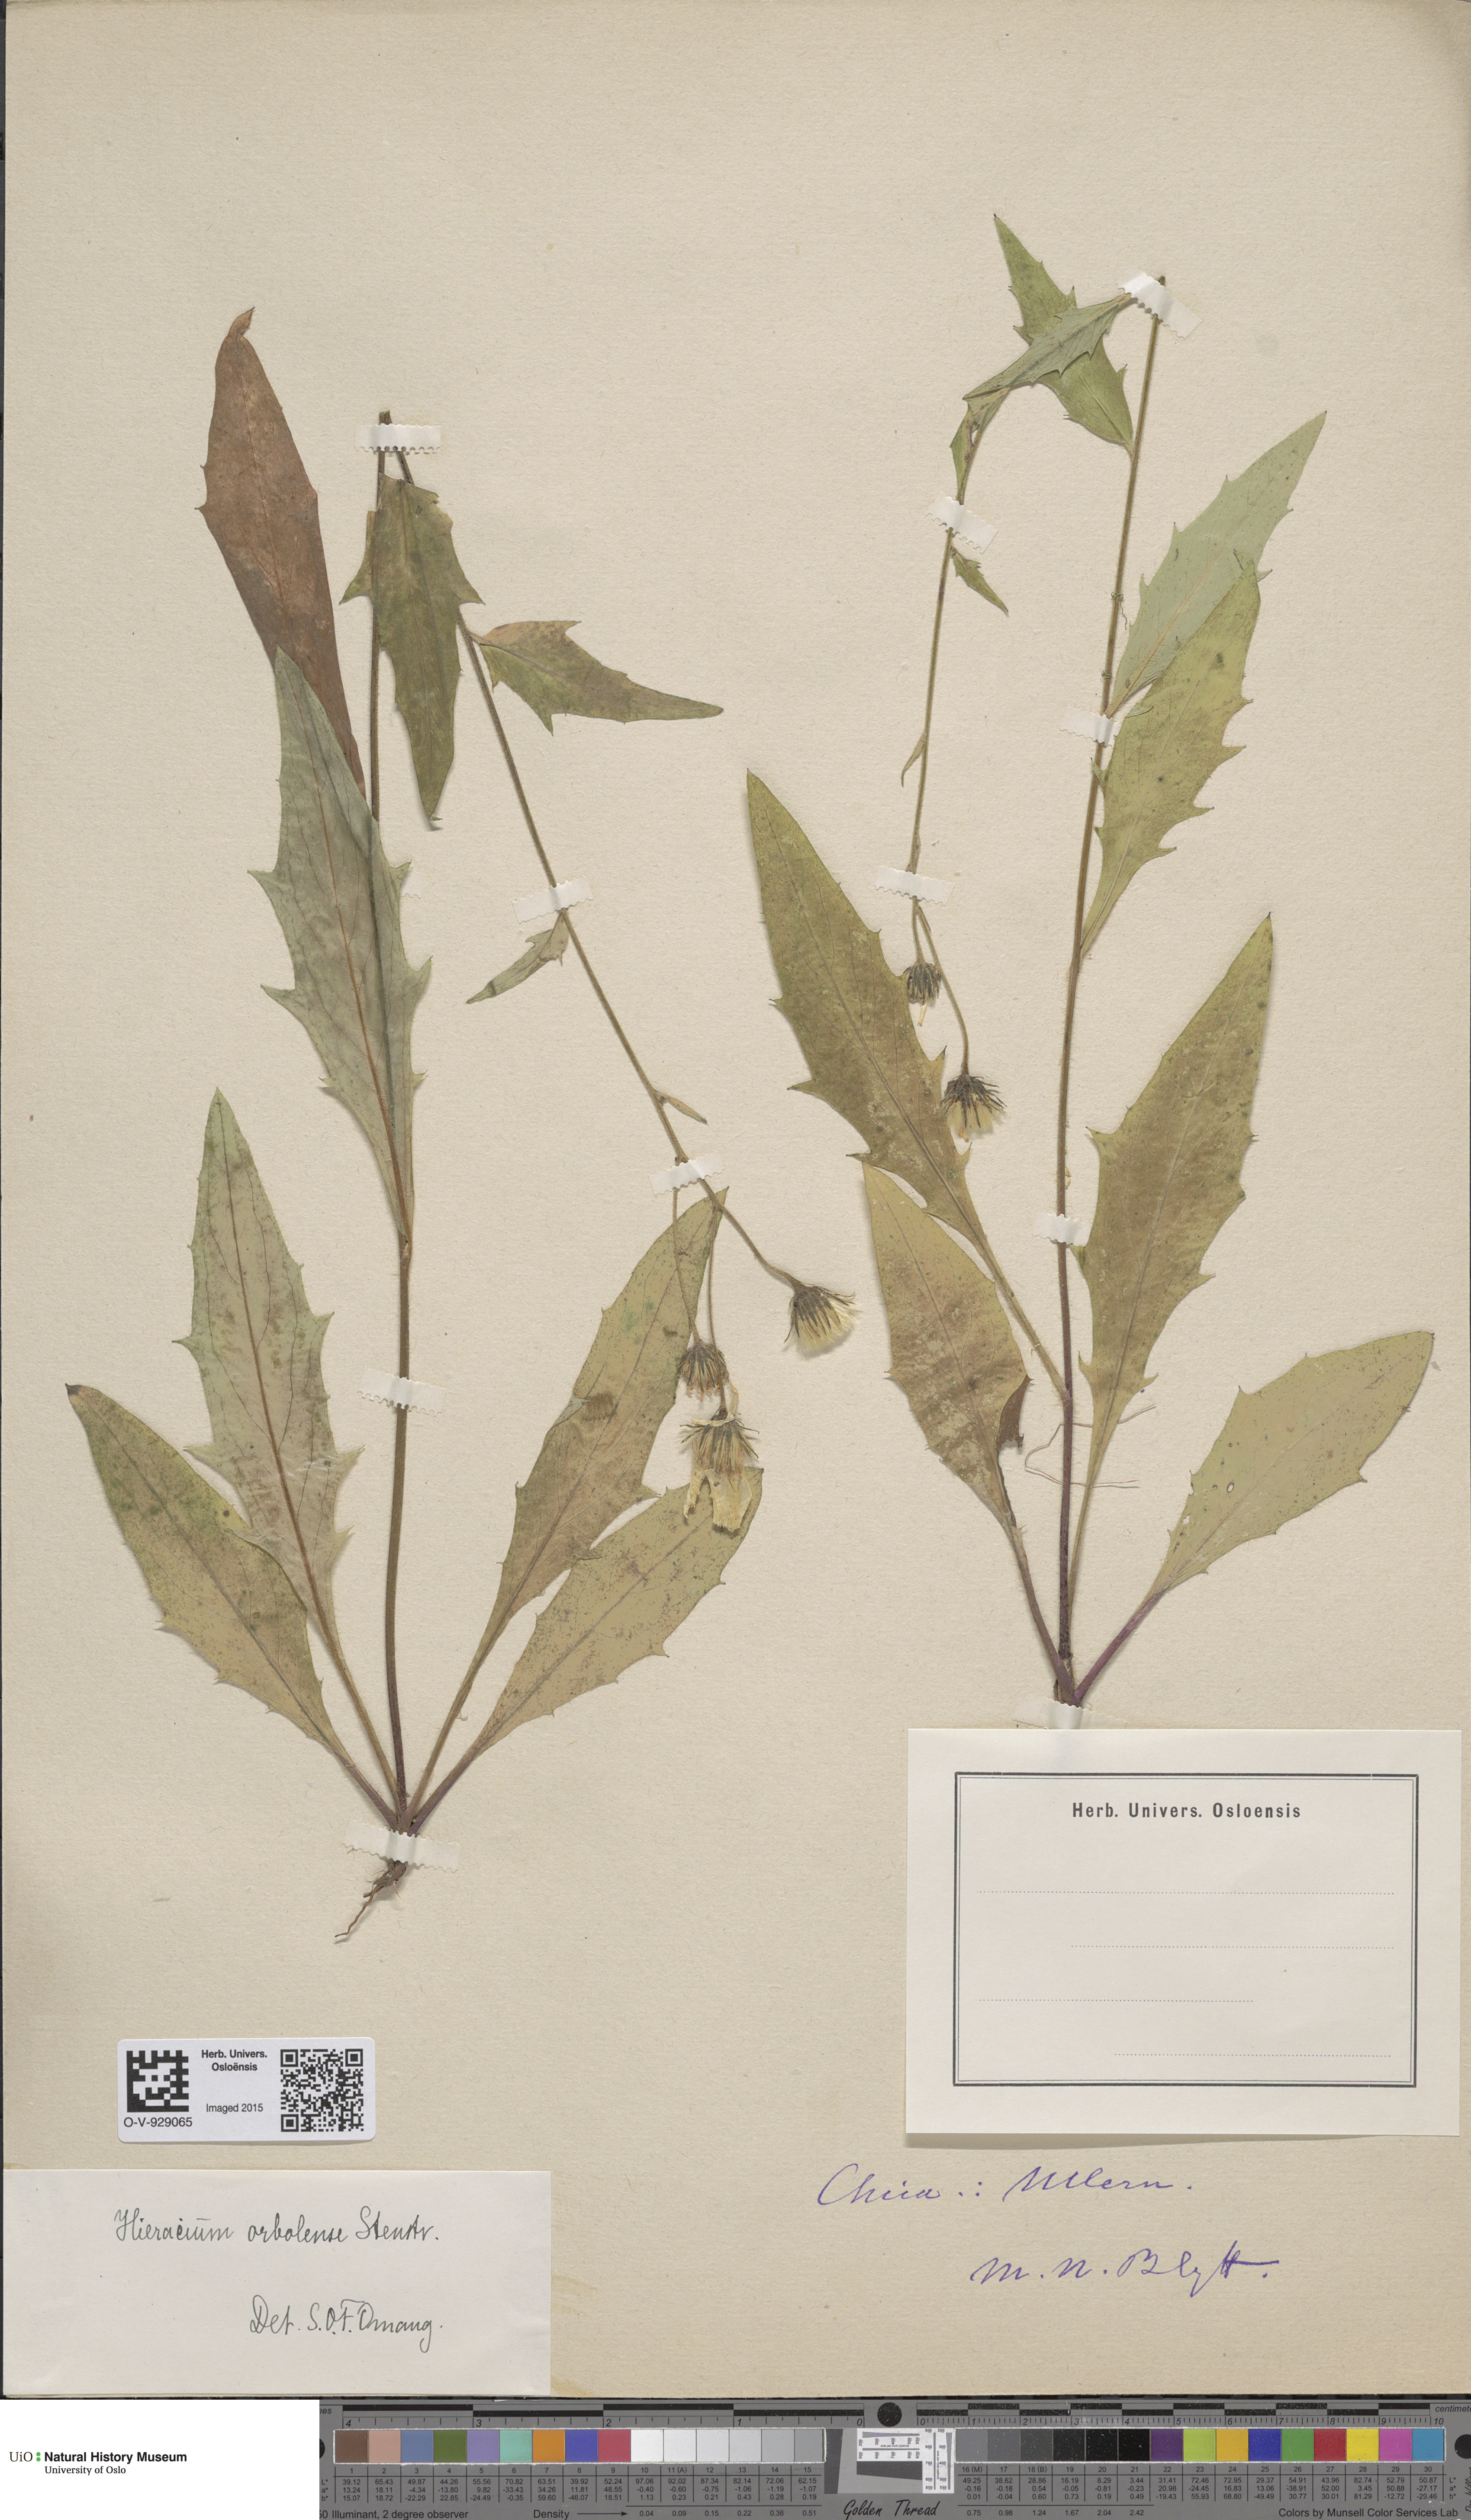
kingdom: Plantae
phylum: Tracheophyta
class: Magnoliopsida
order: Asterales
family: Asteraceae
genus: Hieracium
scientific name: Hieracium orbolense
